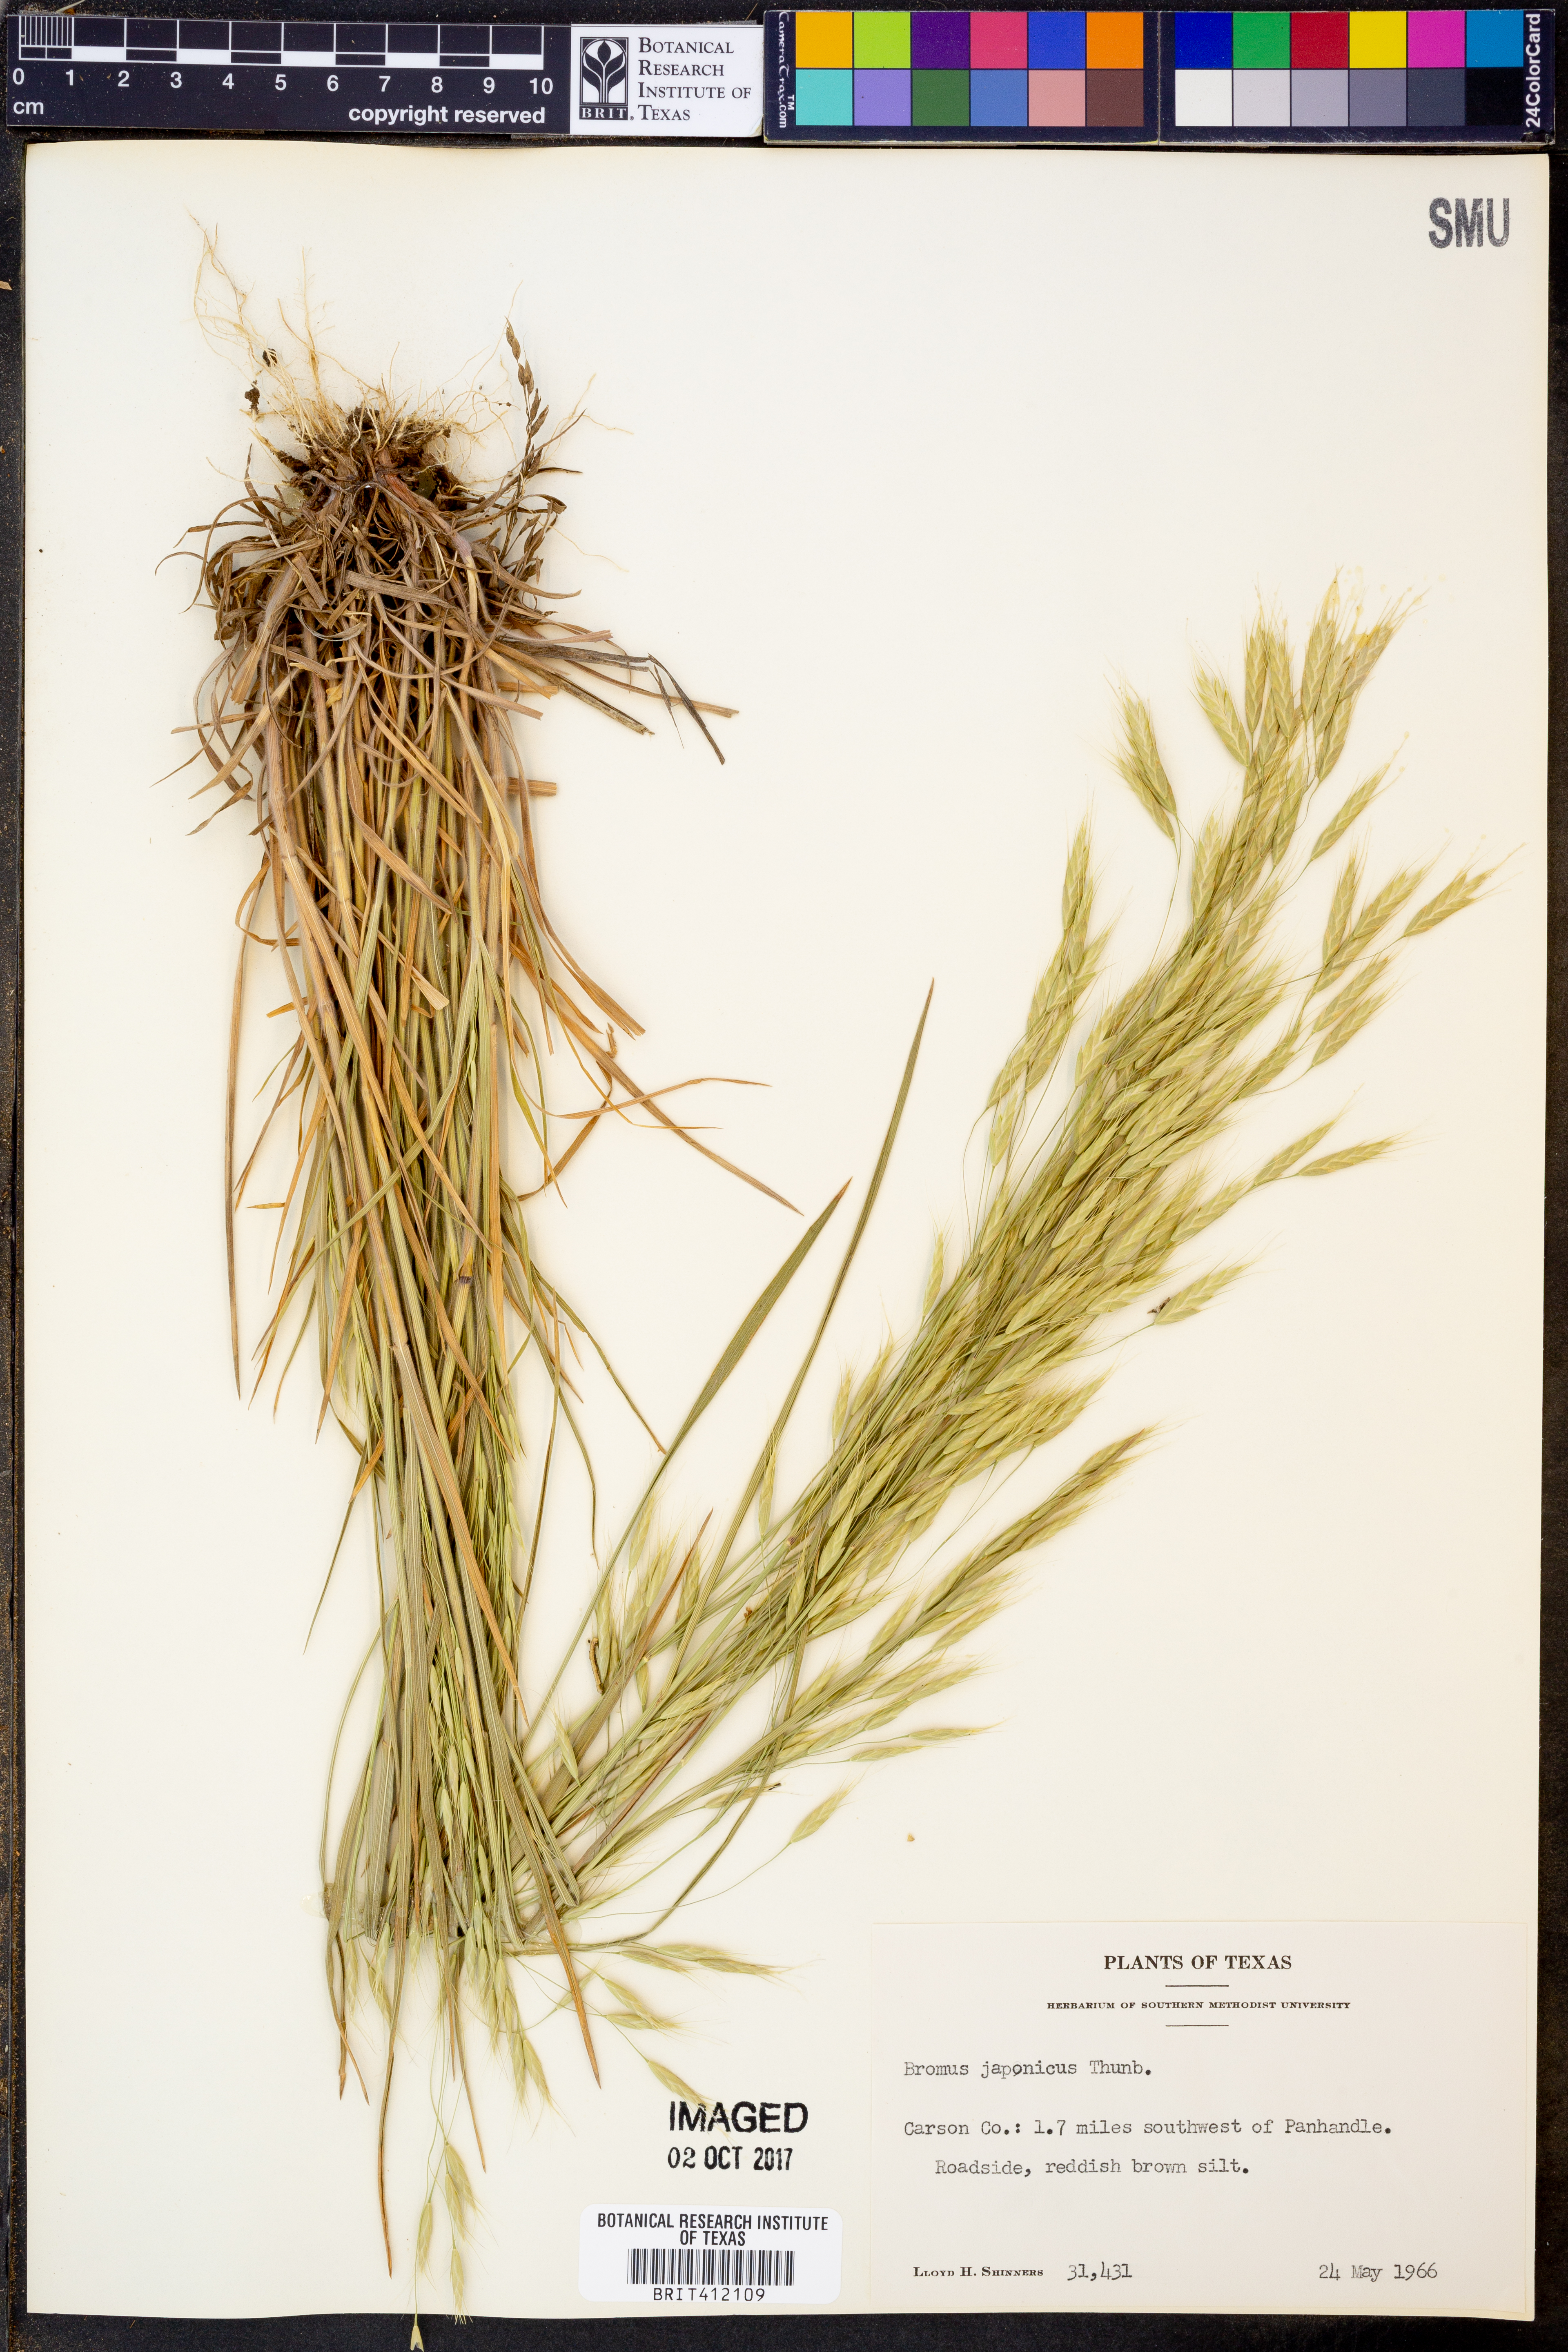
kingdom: Plantae
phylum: Tracheophyta
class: Liliopsida
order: Poales
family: Poaceae
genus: Bromus
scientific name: Bromus japonicus
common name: Japanese brome
